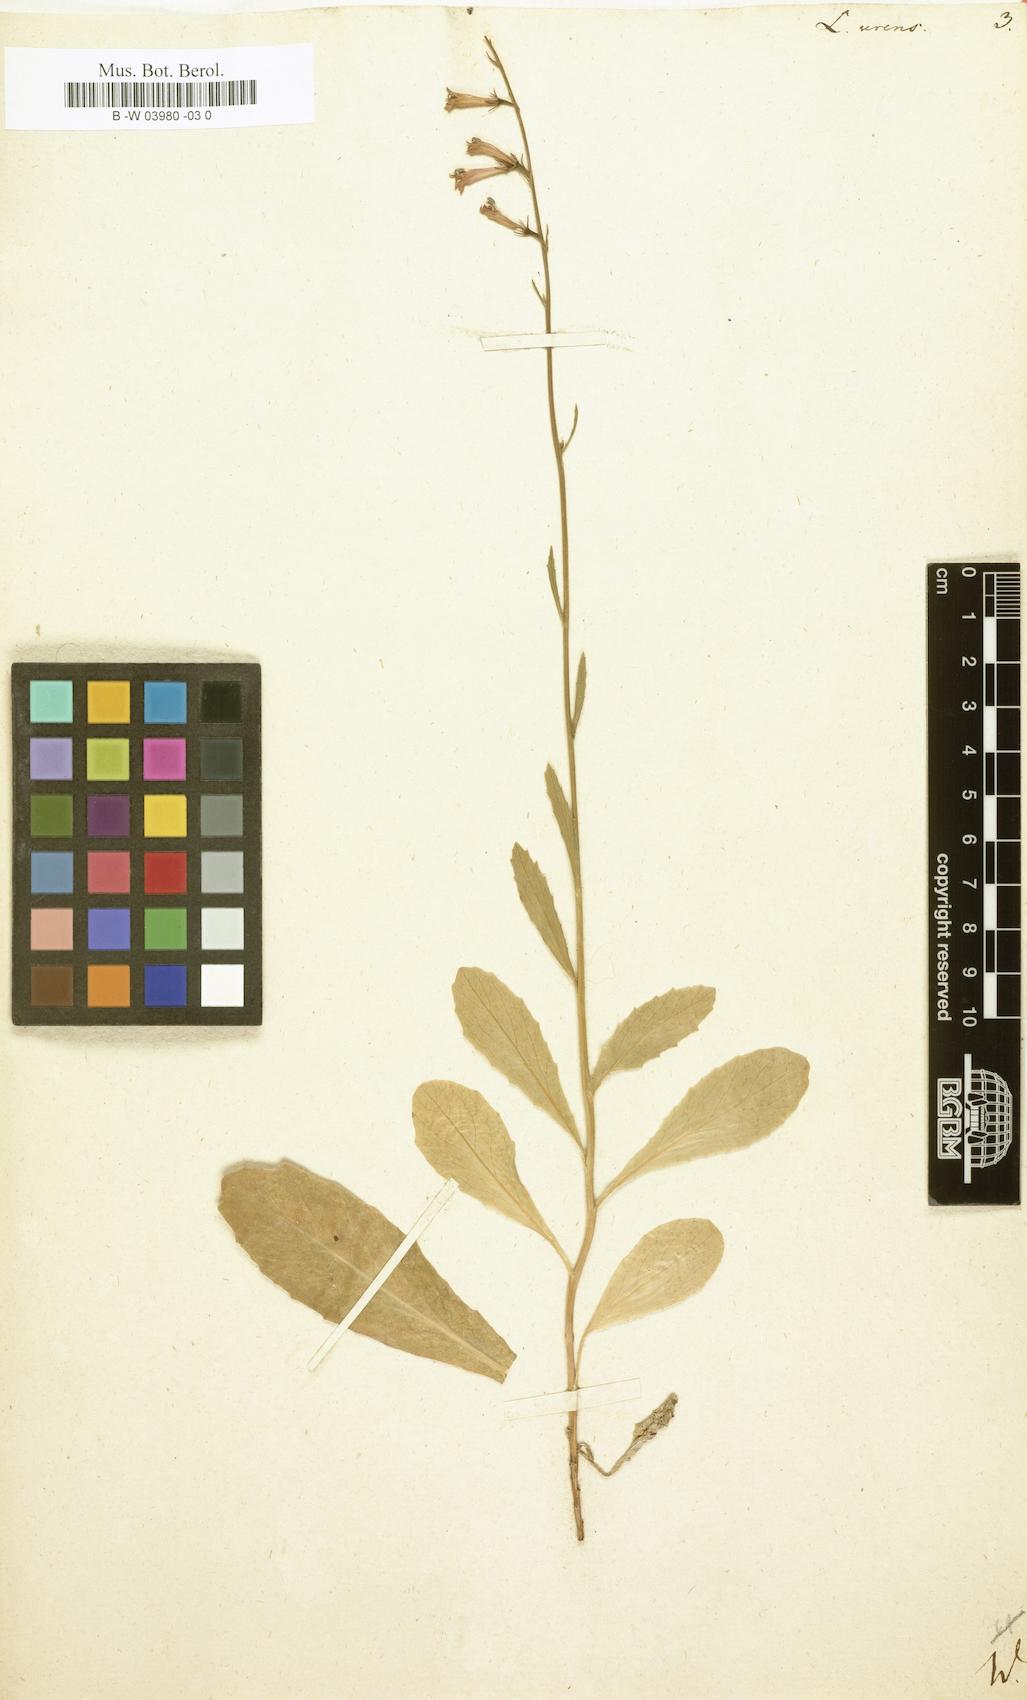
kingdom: Plantae
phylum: Tracheophyta
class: Magnoliopsida
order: Asterales
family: Campanulaceae
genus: Lobelia
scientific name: Lobelia urens
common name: Heath lobelia
